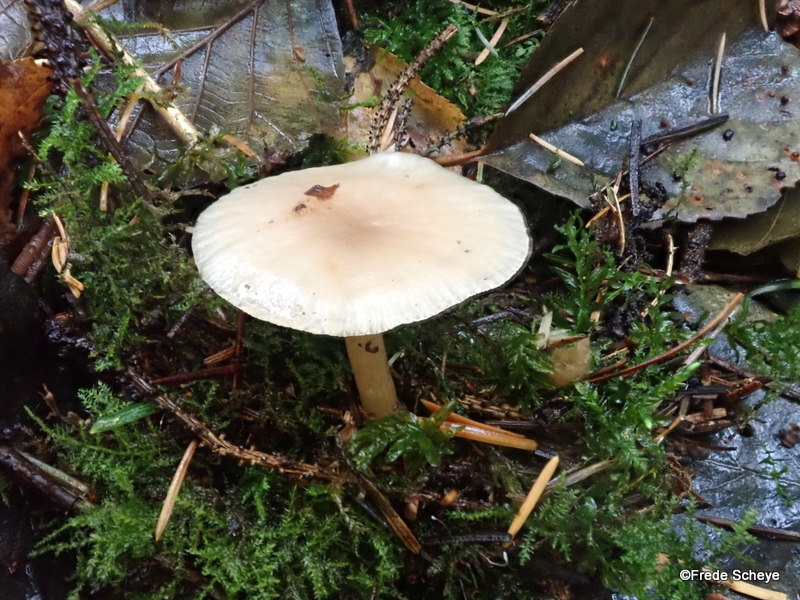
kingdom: Fungi
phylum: Basidiomycota
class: Agaricomycetes
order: Agaricales
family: Tricholomataceae
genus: Clitocybe
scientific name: Clitocybe fragrans
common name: vellugtende tragthat
